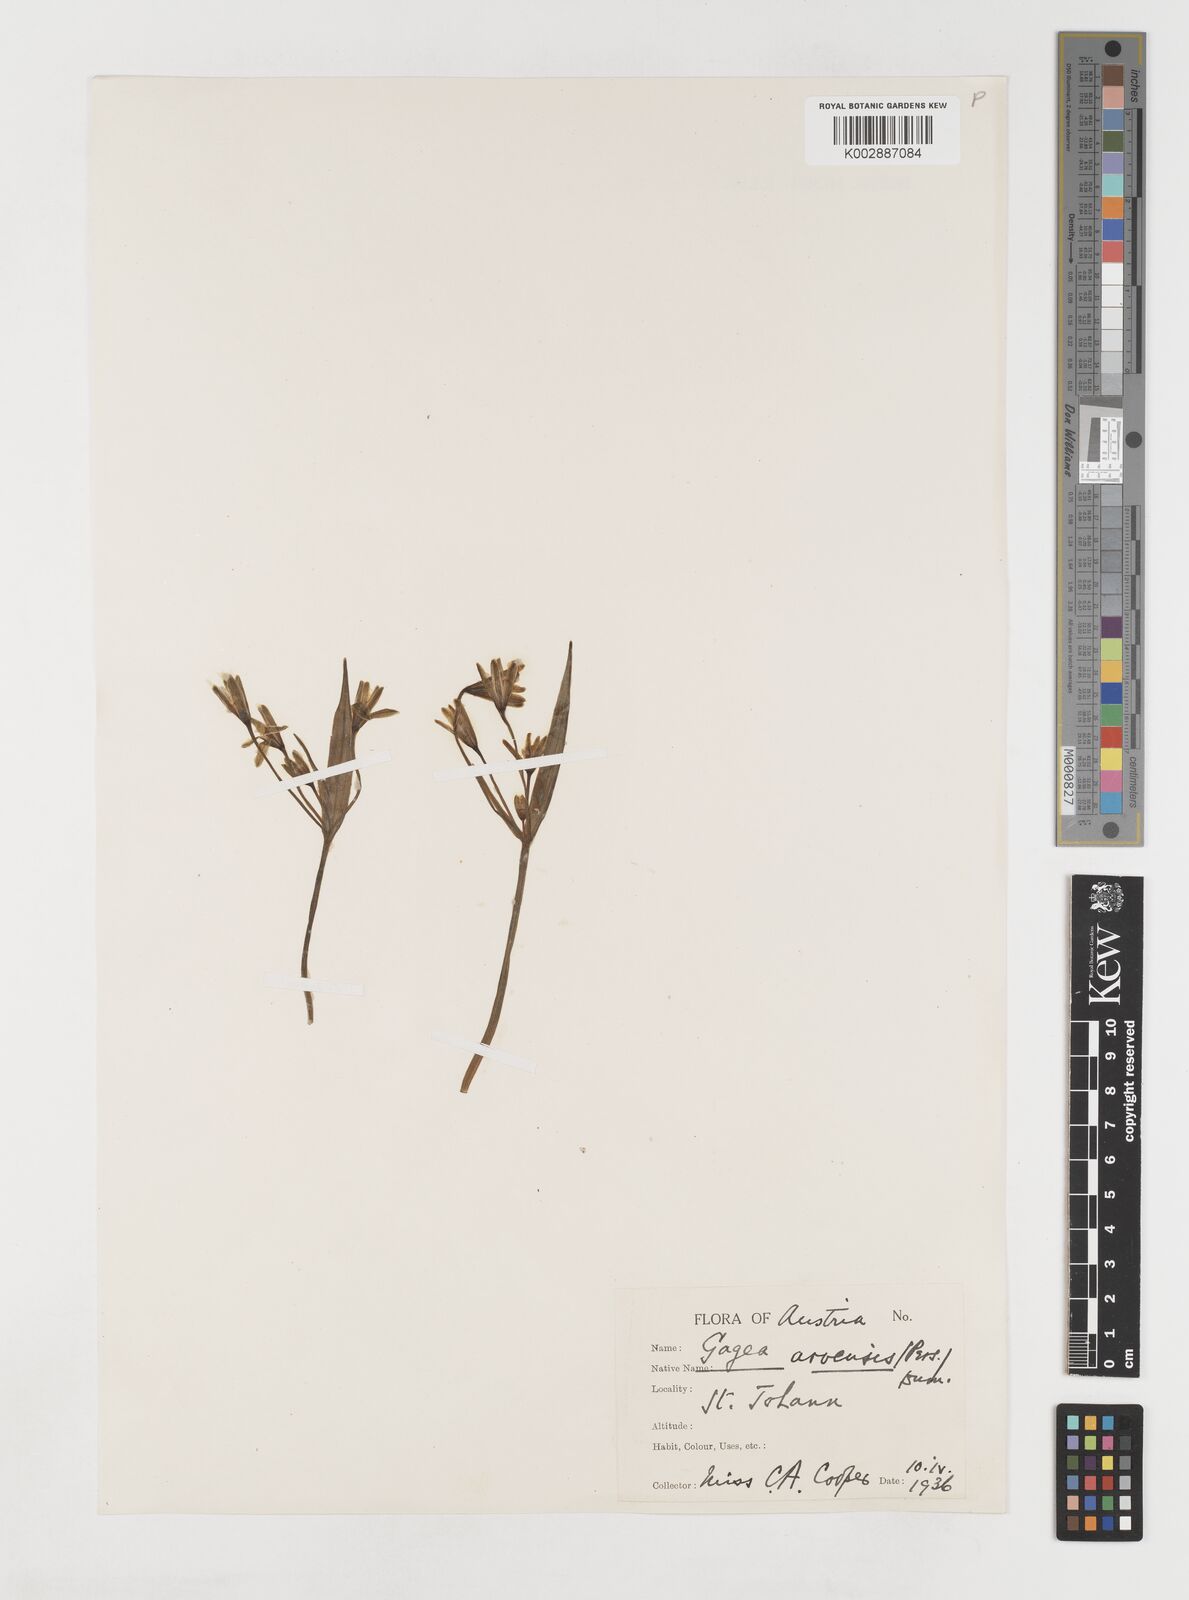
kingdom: Plantae
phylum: Tracheophyta
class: Liliopsida
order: Liliales
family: Liliaceae
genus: Gagea
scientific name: Gagea minima
